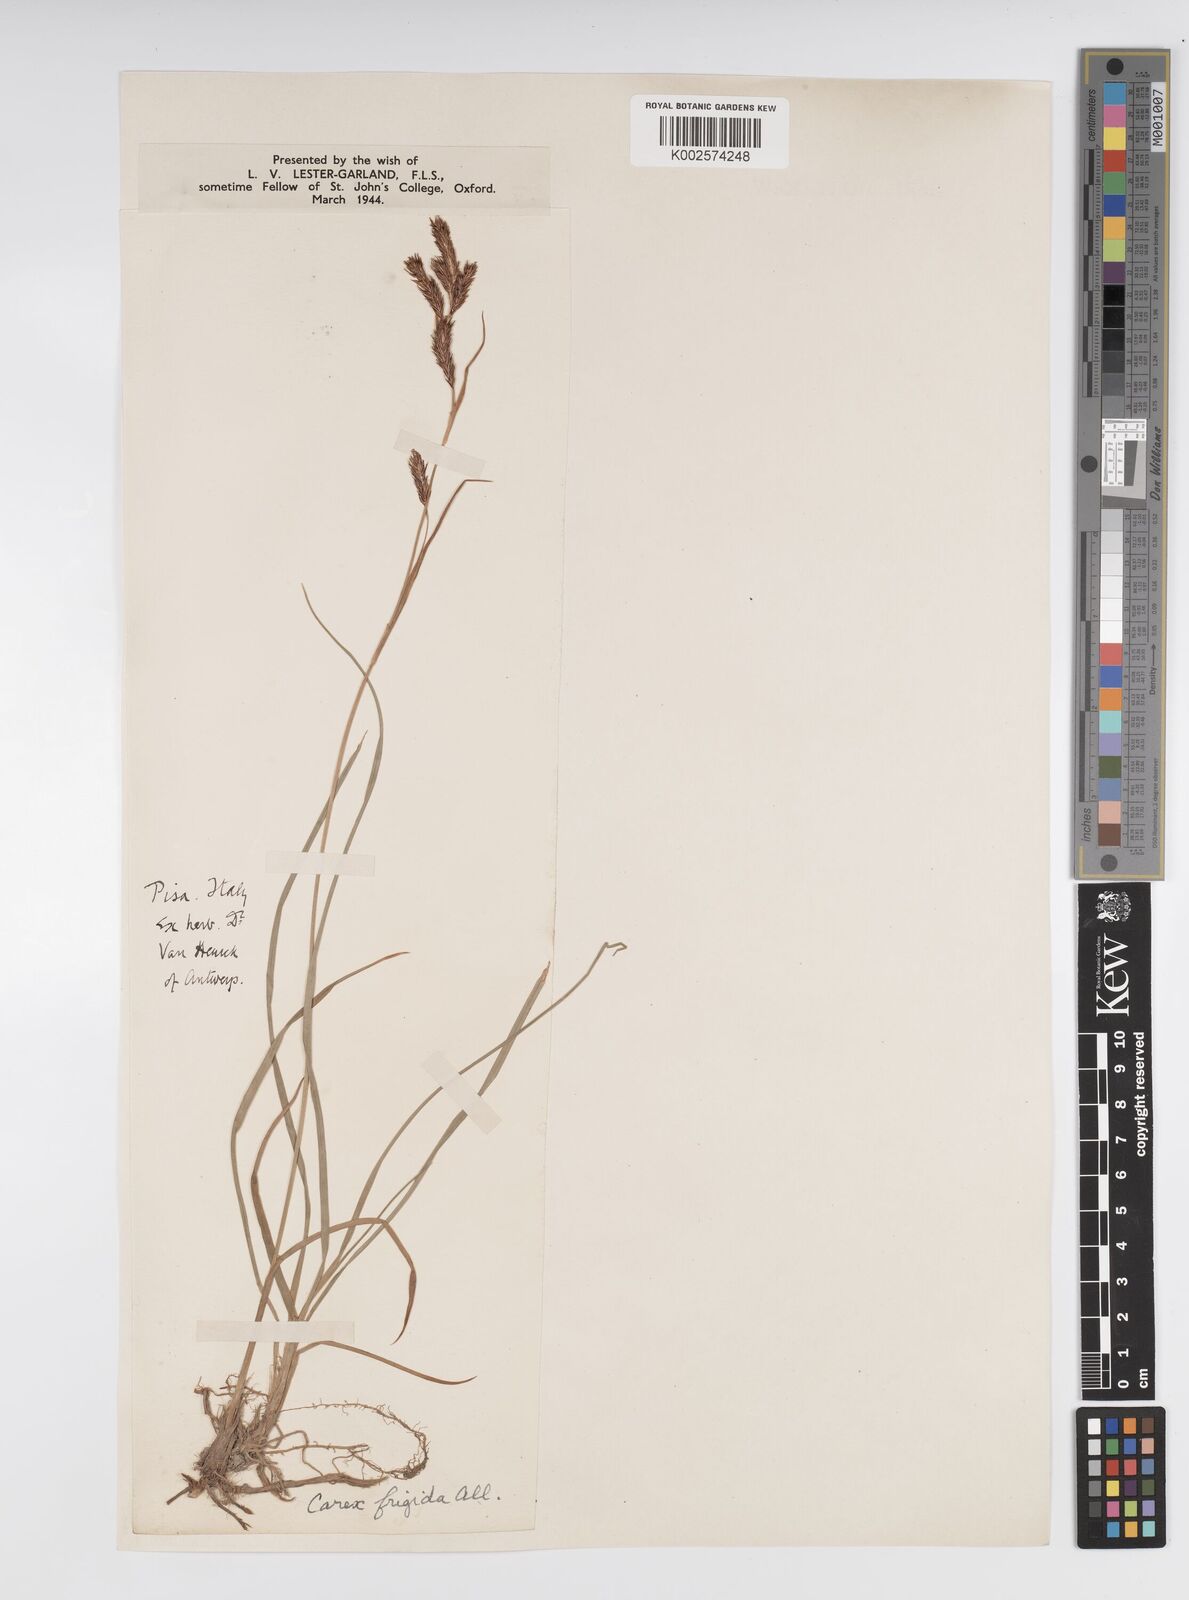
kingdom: Plantae
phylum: Tracheophyta
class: Liliopsida
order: Poales
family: Cyperaceae
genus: Carex
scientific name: Carex frigida
